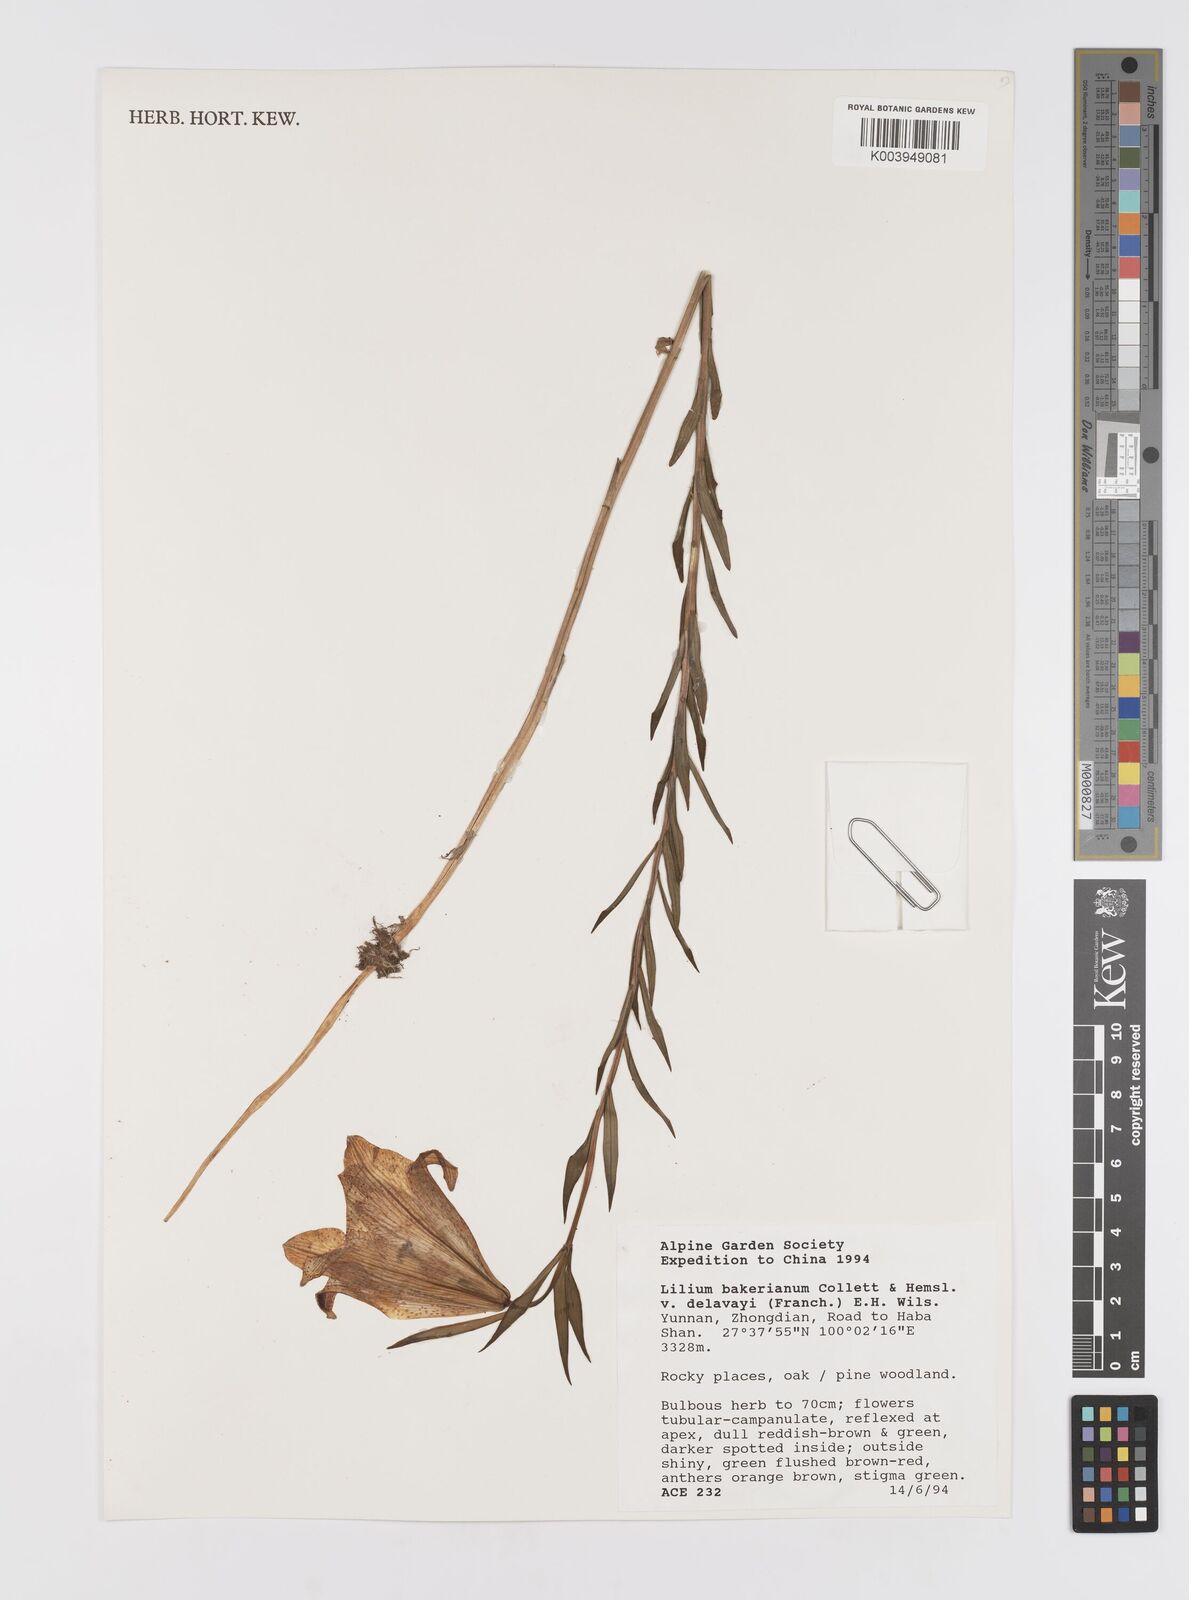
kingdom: Plantae
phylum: Tracheophyta
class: Liliopsida
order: Liliales
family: Liliaceae
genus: Lilium
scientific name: Lilium bakerianum
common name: Baker's lily
